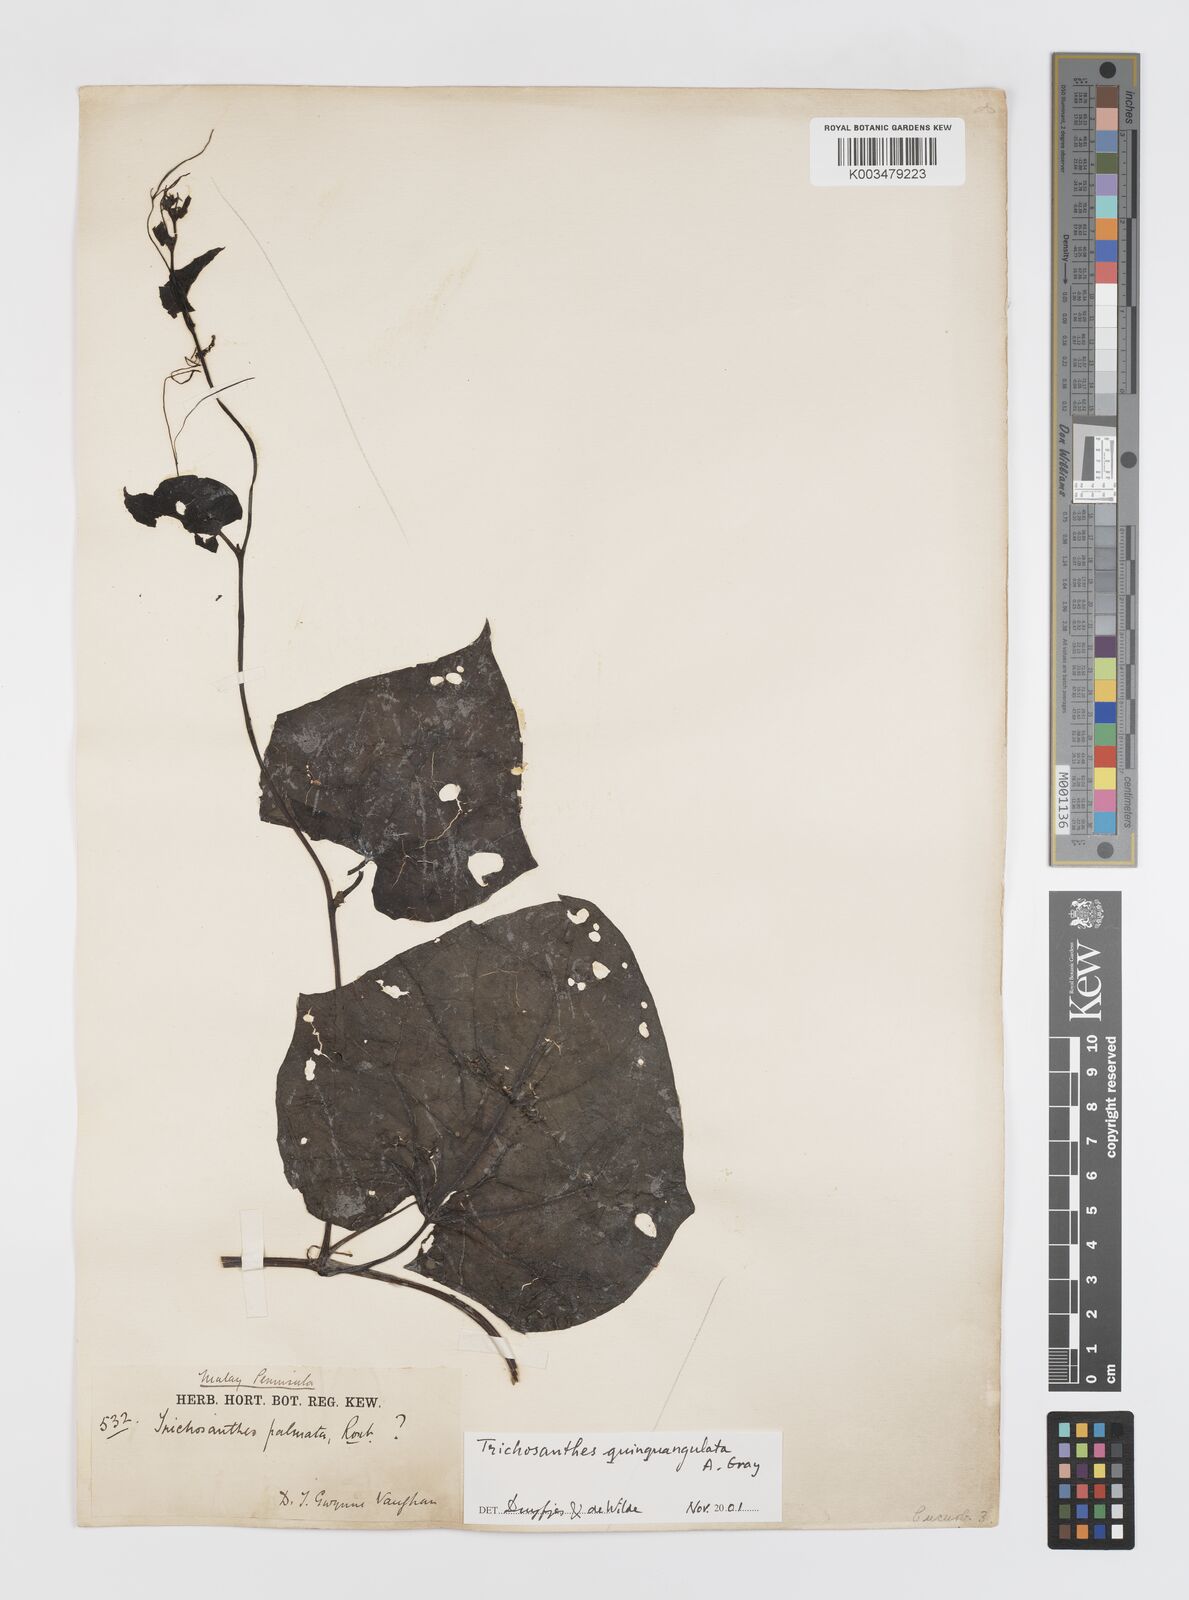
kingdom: Plantae
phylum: Tracheophyta
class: Magnoliopsida
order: Cucurbitales
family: Cucurbitaceae
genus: Trichosanthes
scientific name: Trichosanthes quinquangulata
